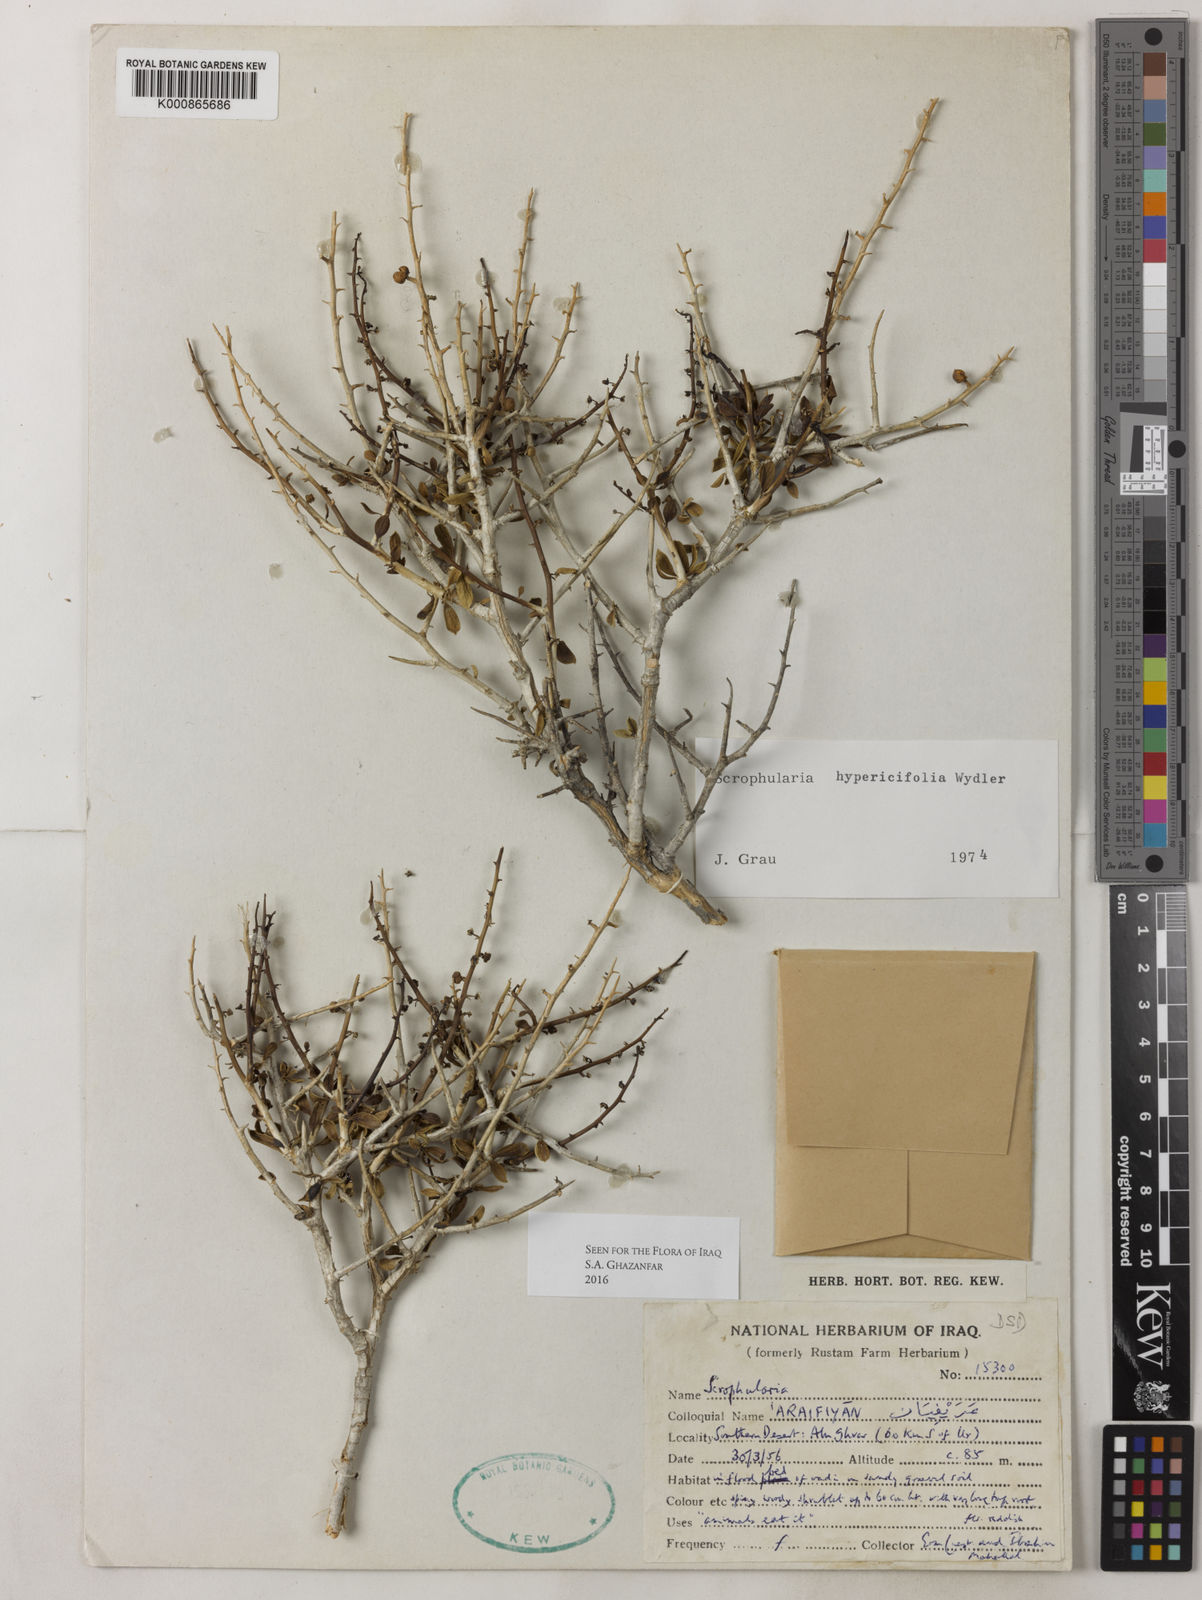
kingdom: Plantae
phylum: Tracheophyta
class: Magnoliopsida
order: Lamiales
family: Scrophulariaceae
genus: Scrophularia
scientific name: Scrophularia hypericifolia
